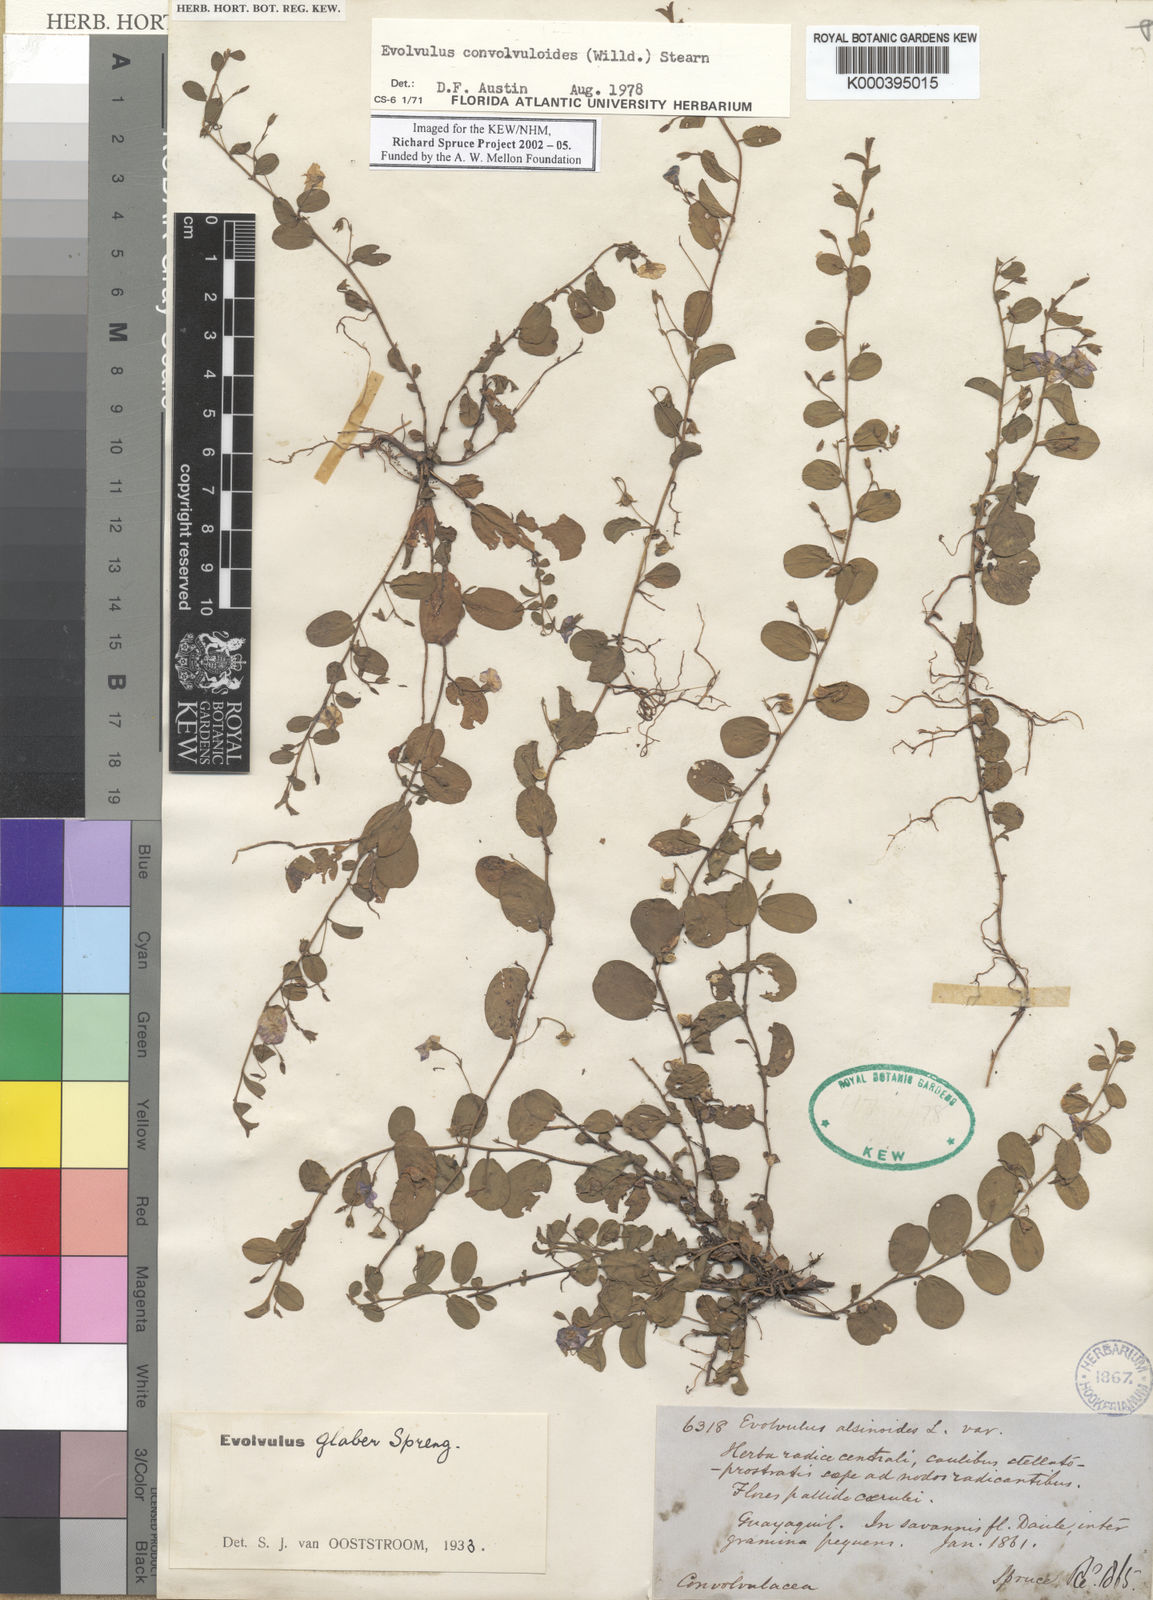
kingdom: Plantae
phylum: Tracheophyta
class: Magnoliopsida
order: Solanales
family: Convolvulaceae
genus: Evolvulus
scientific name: Evolvulus convolvuloides
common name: Bindweed dwarf morning-glory
